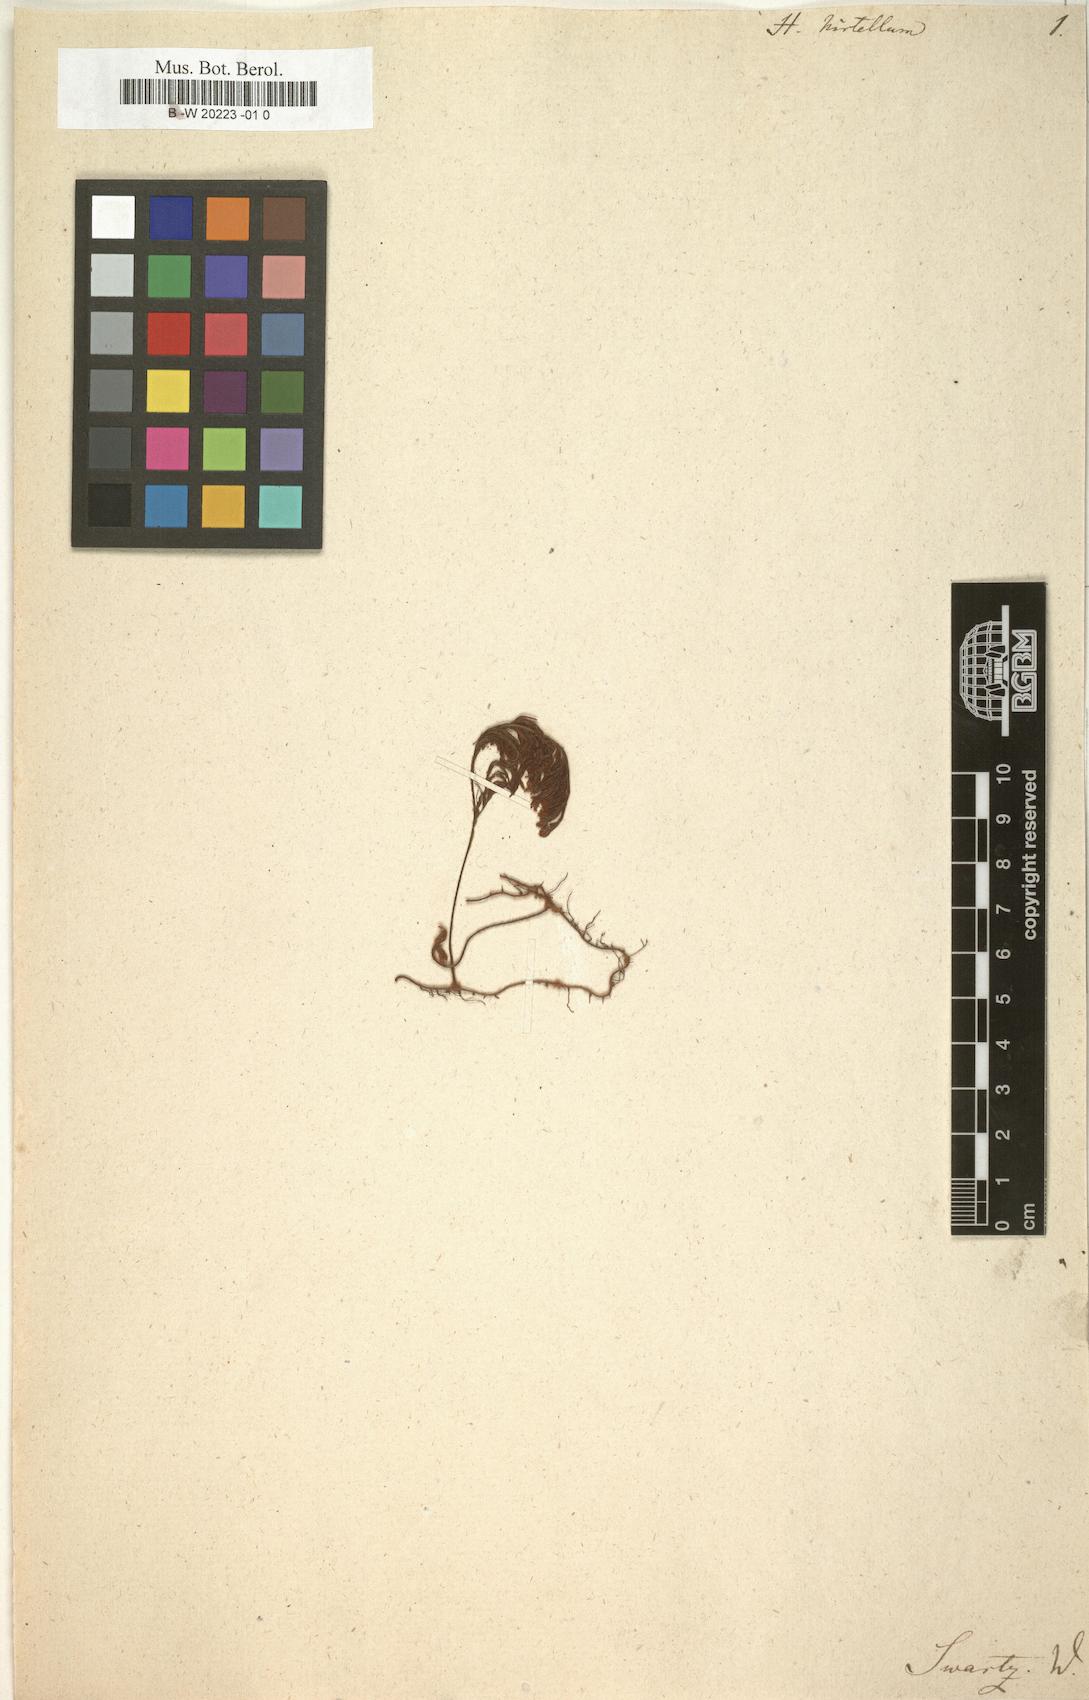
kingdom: Plantae
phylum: Tracheophyta
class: Polypodiopsida
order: Hymenophyllales
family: Hymenophyllaceae
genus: Hymenophyllum
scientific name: Hymenophyllum hirtellum
